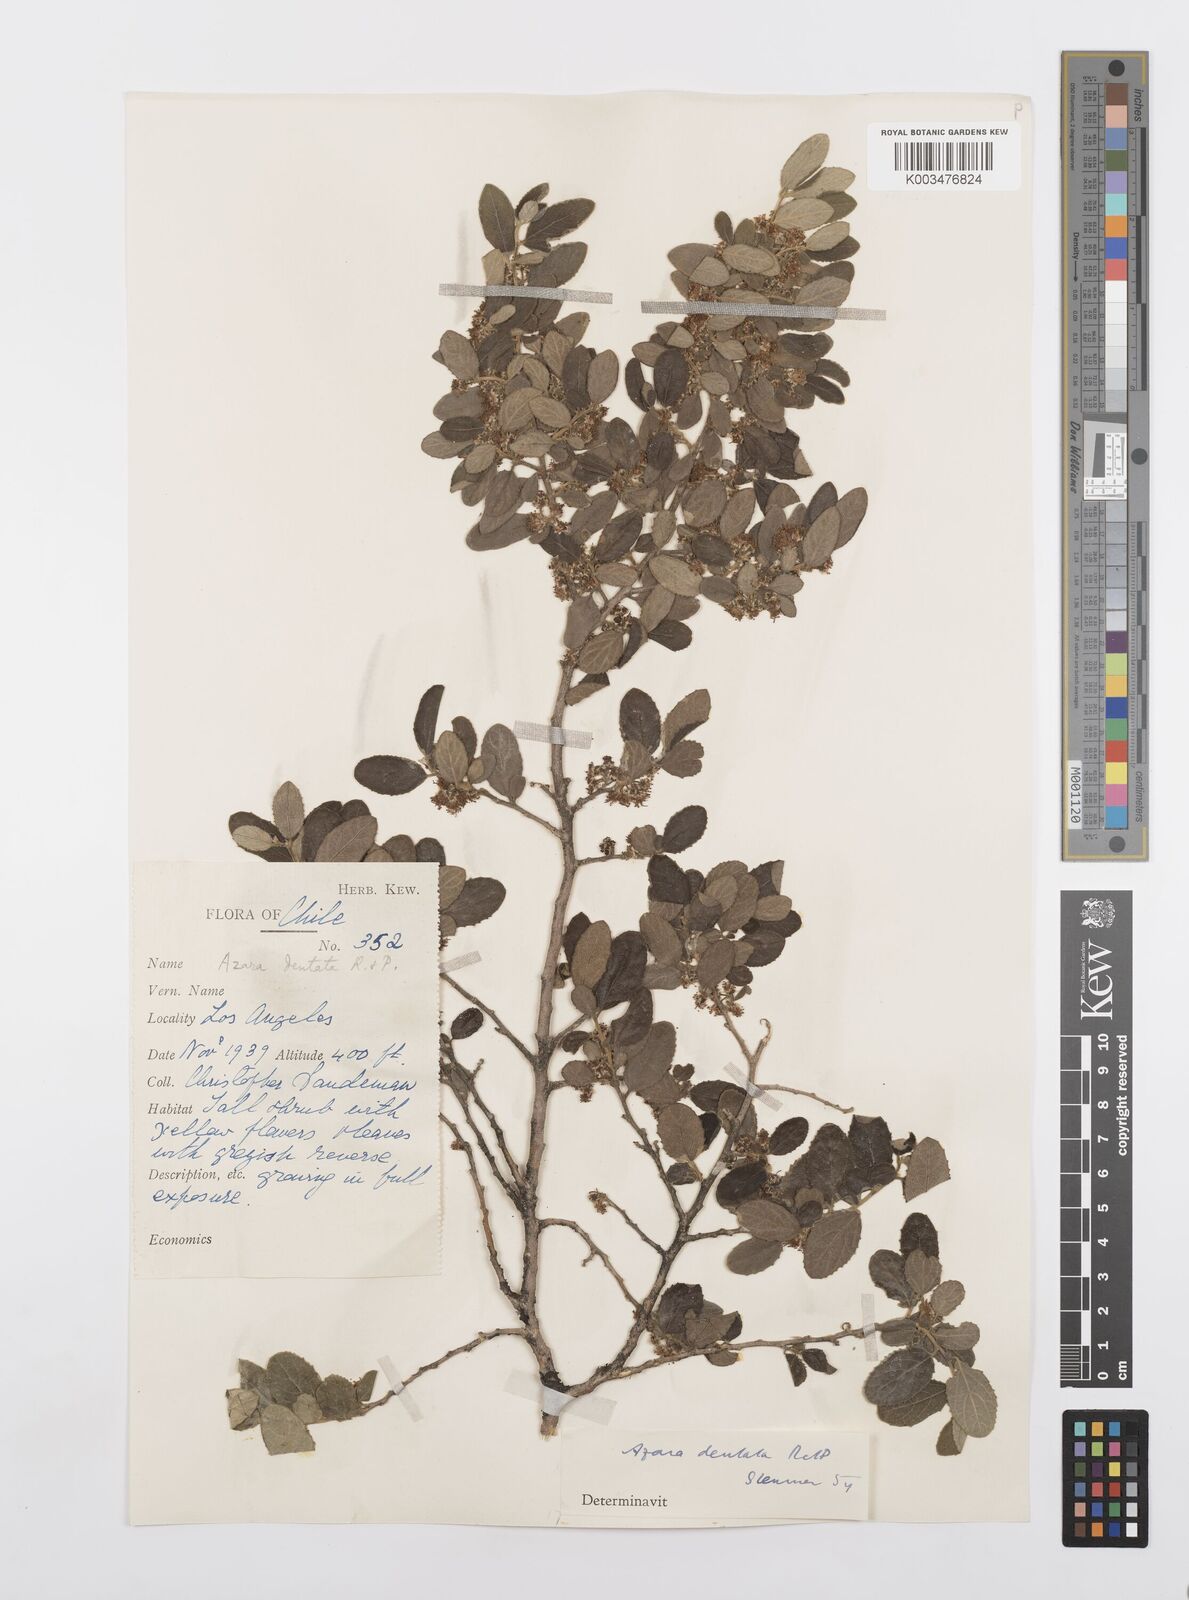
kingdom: Plantae
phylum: Tracheophyta
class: Magnoliopsida
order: Malpighiales
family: Salicaceae
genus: Azara
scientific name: Azara dentata
